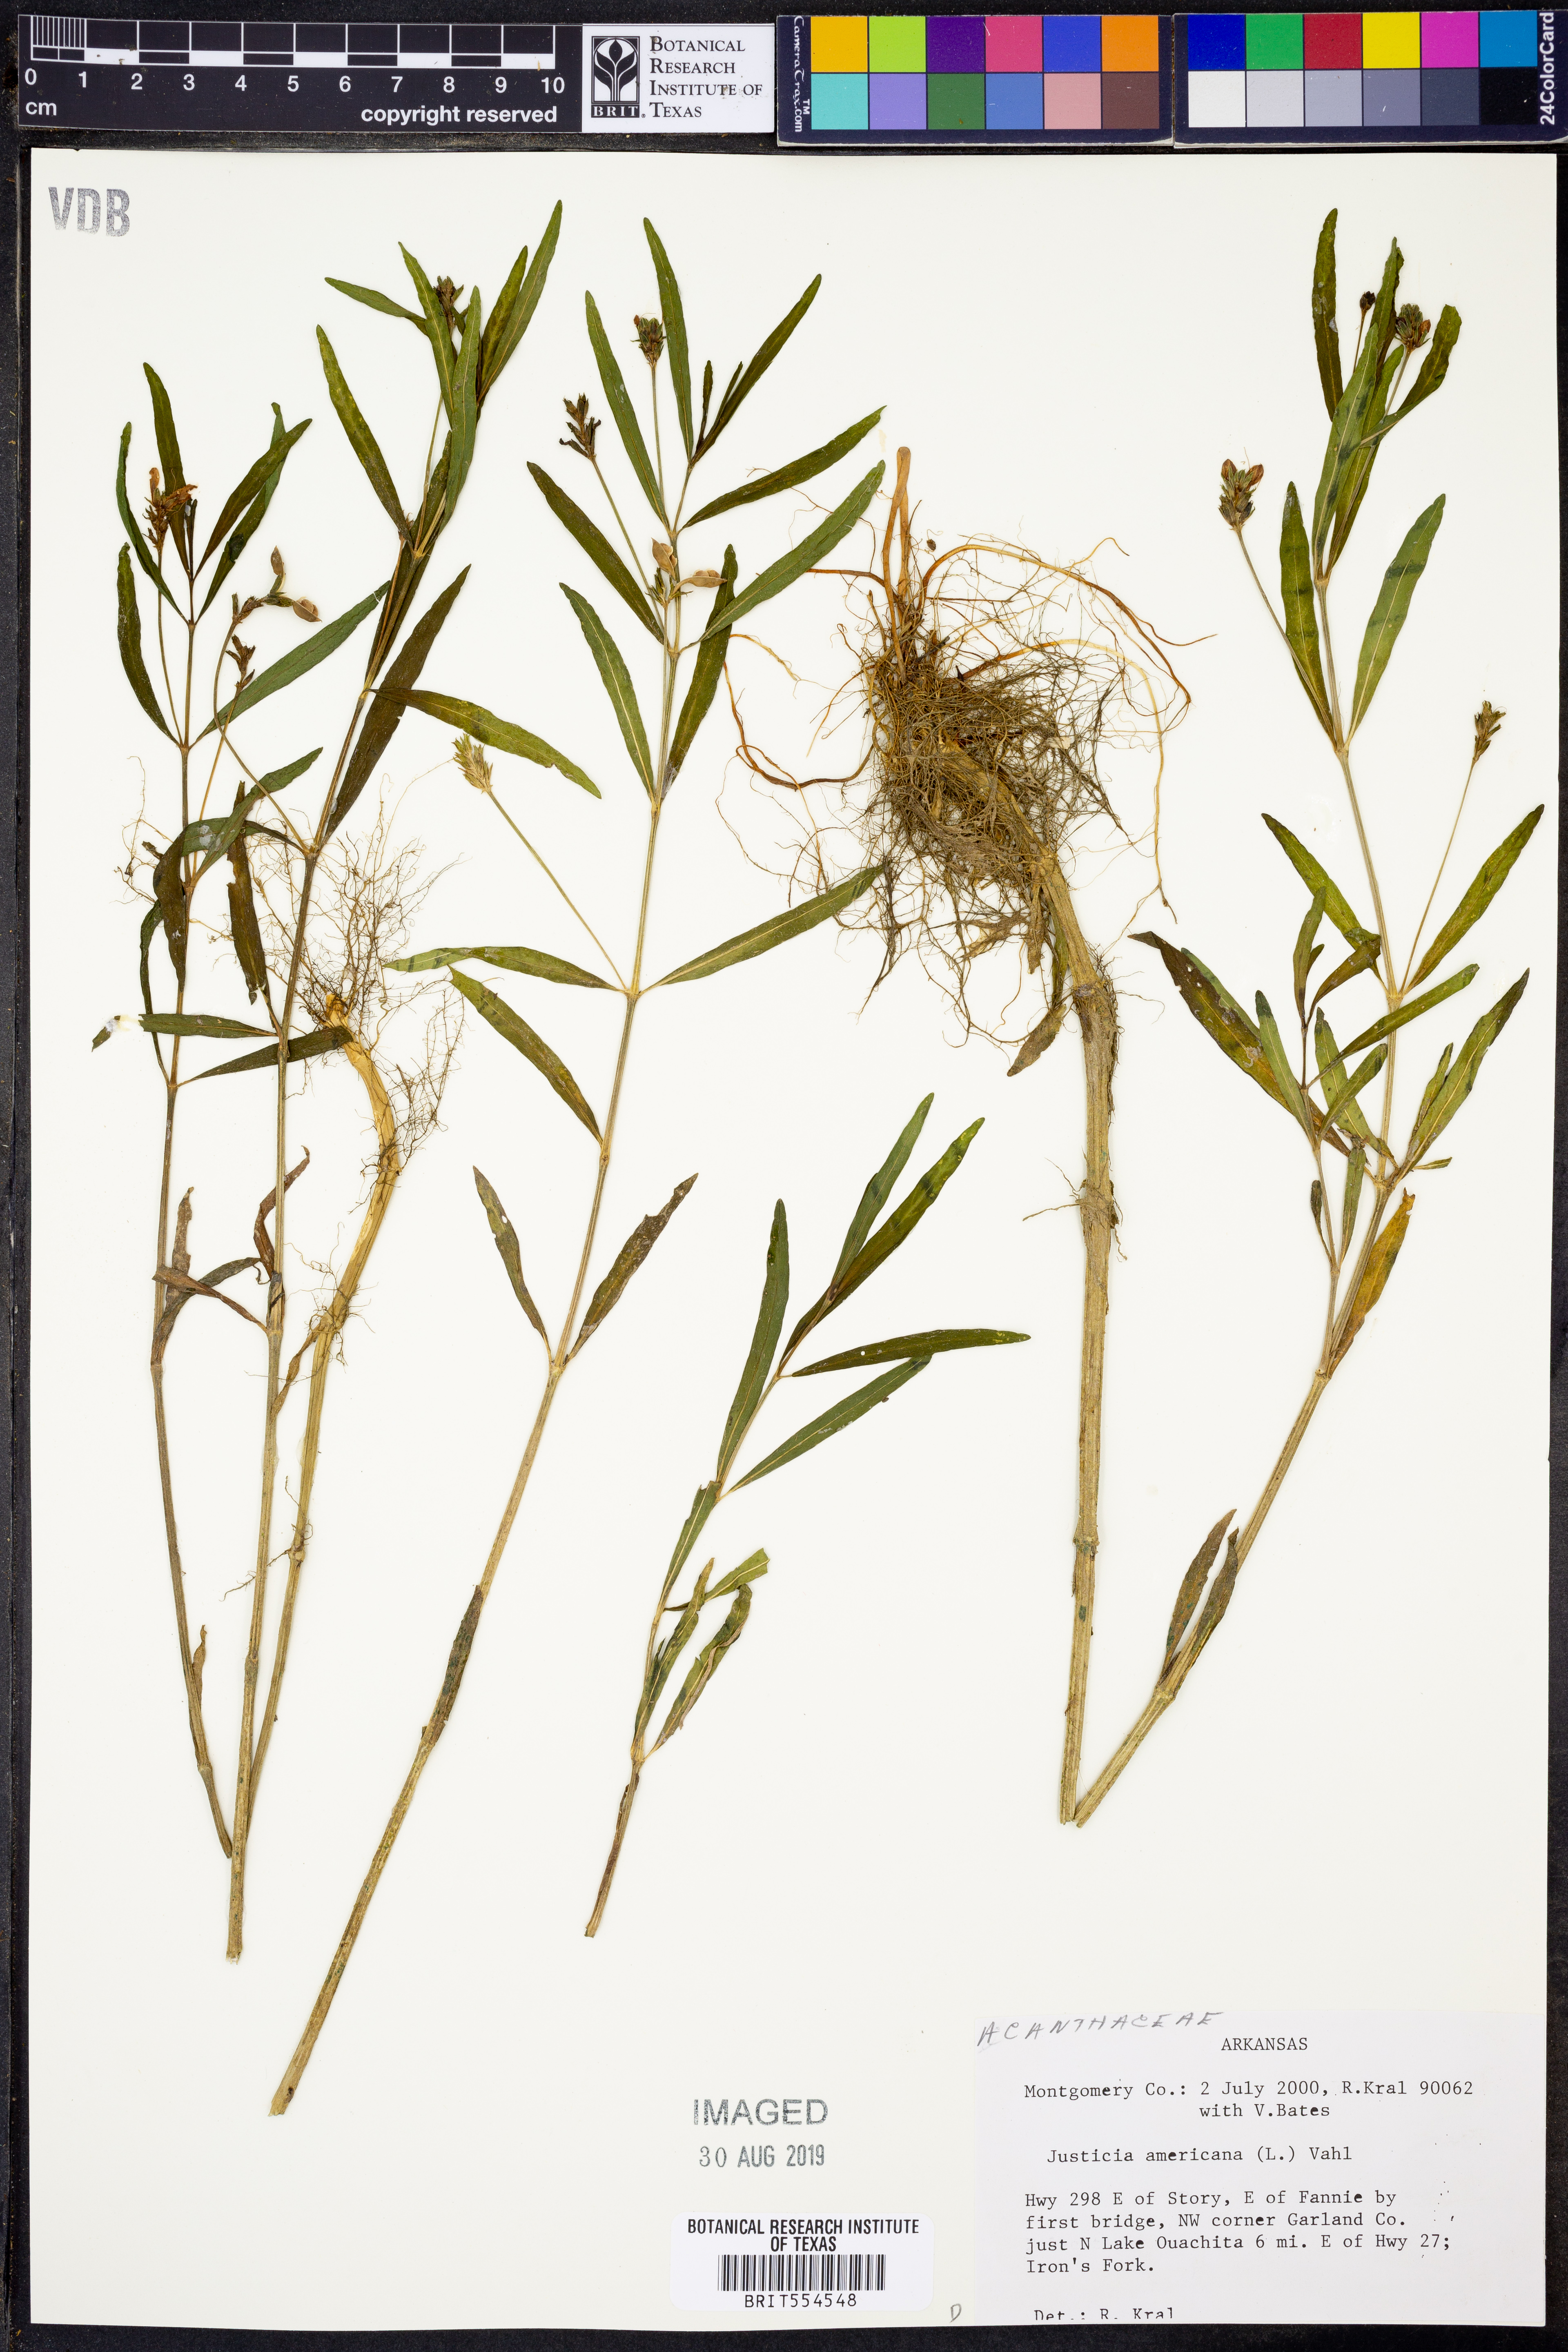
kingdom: Plantae
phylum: Tracheophyta
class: Magnoliopsida
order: Lamiales
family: Acanthaceae
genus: Dianthera
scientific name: Dianthera americana
